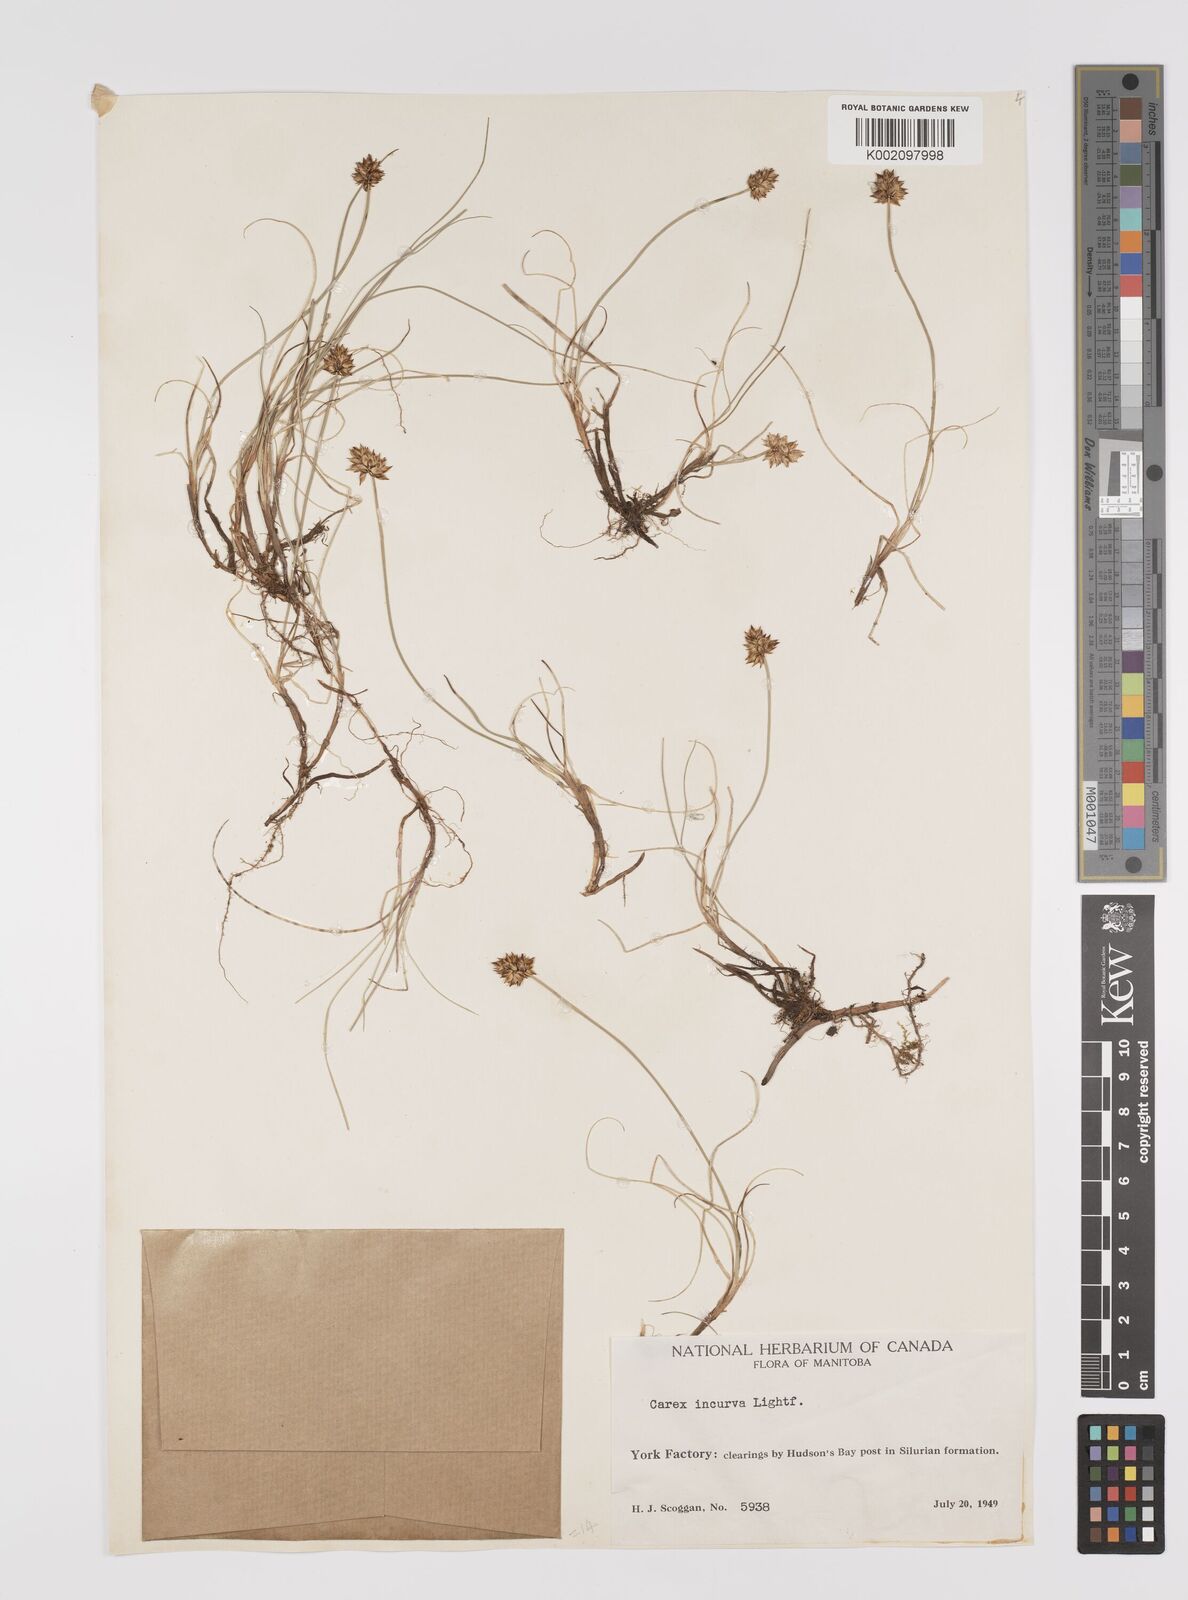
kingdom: Plantae
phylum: Tracheophyta
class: Liliopsida
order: Poales
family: Cyperaceae
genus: Carex
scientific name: Carex maritima
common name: Curved sedge
